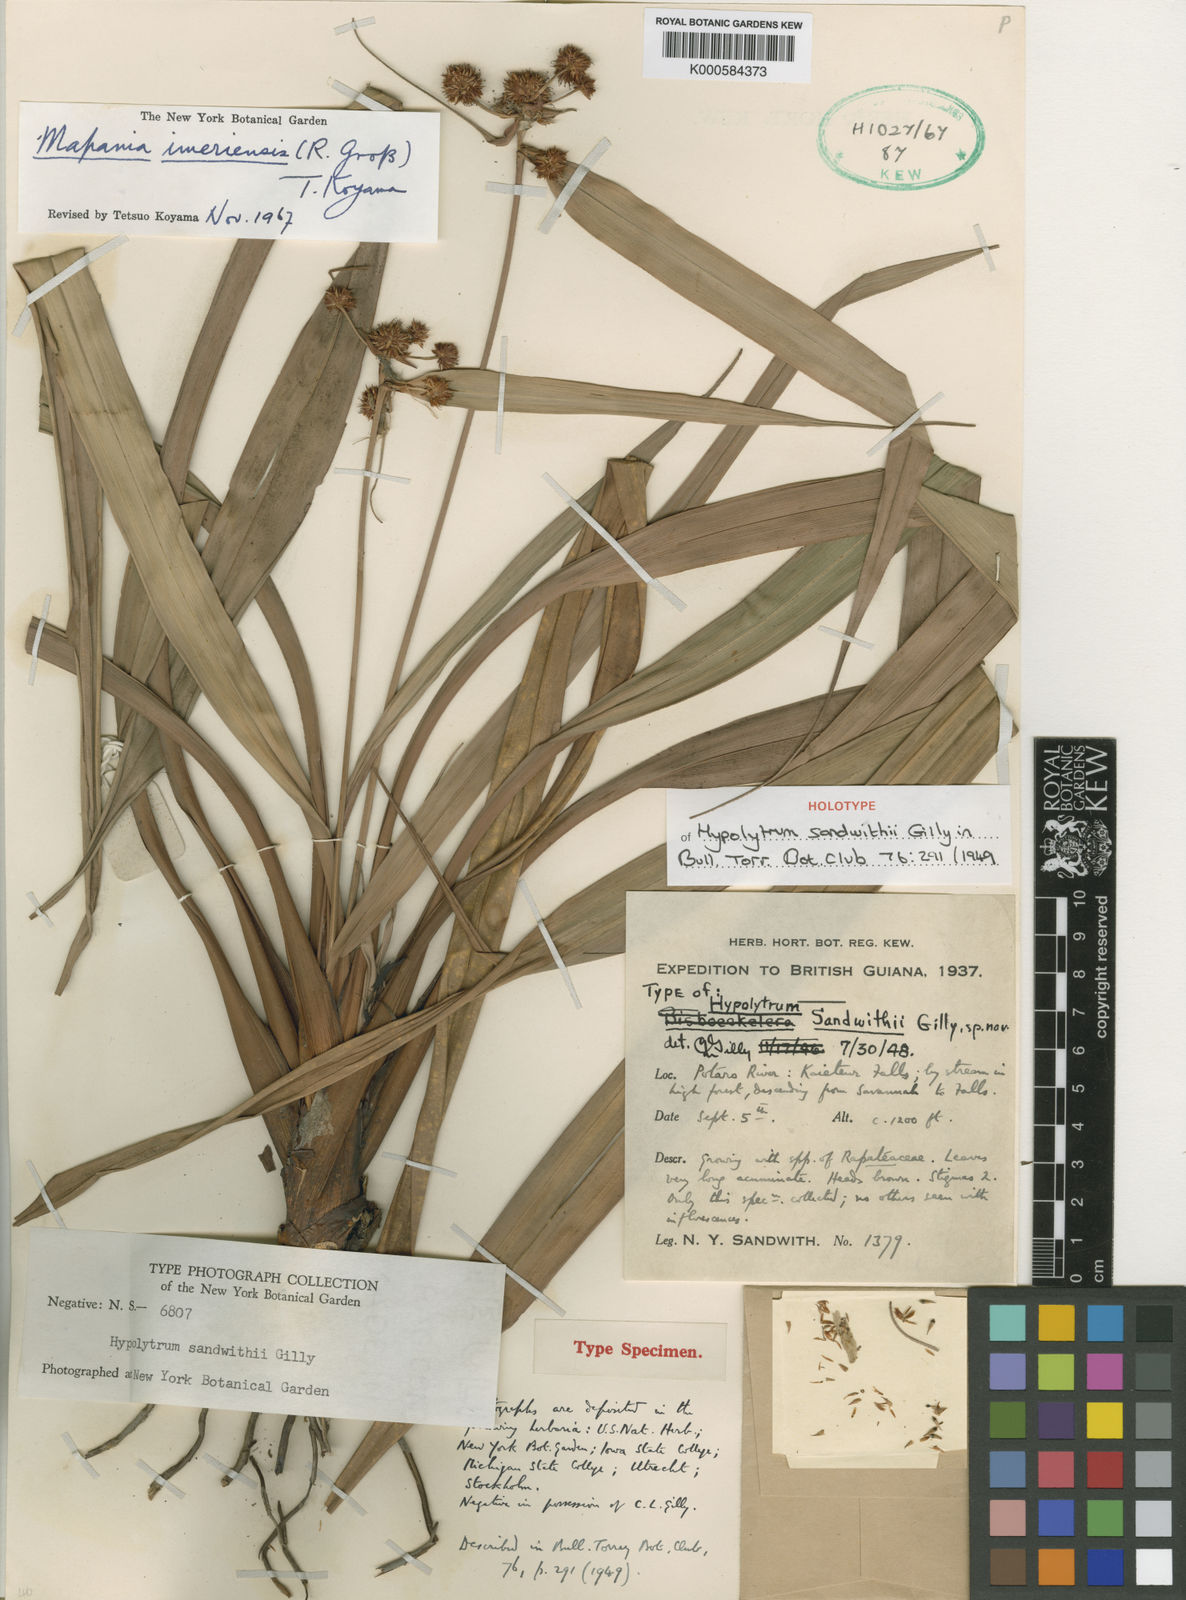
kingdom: Plantae
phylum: Tracheophyta
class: Liliopsida
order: Poales
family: Cyperaceae
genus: Mapania
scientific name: Mapania imeriensis
